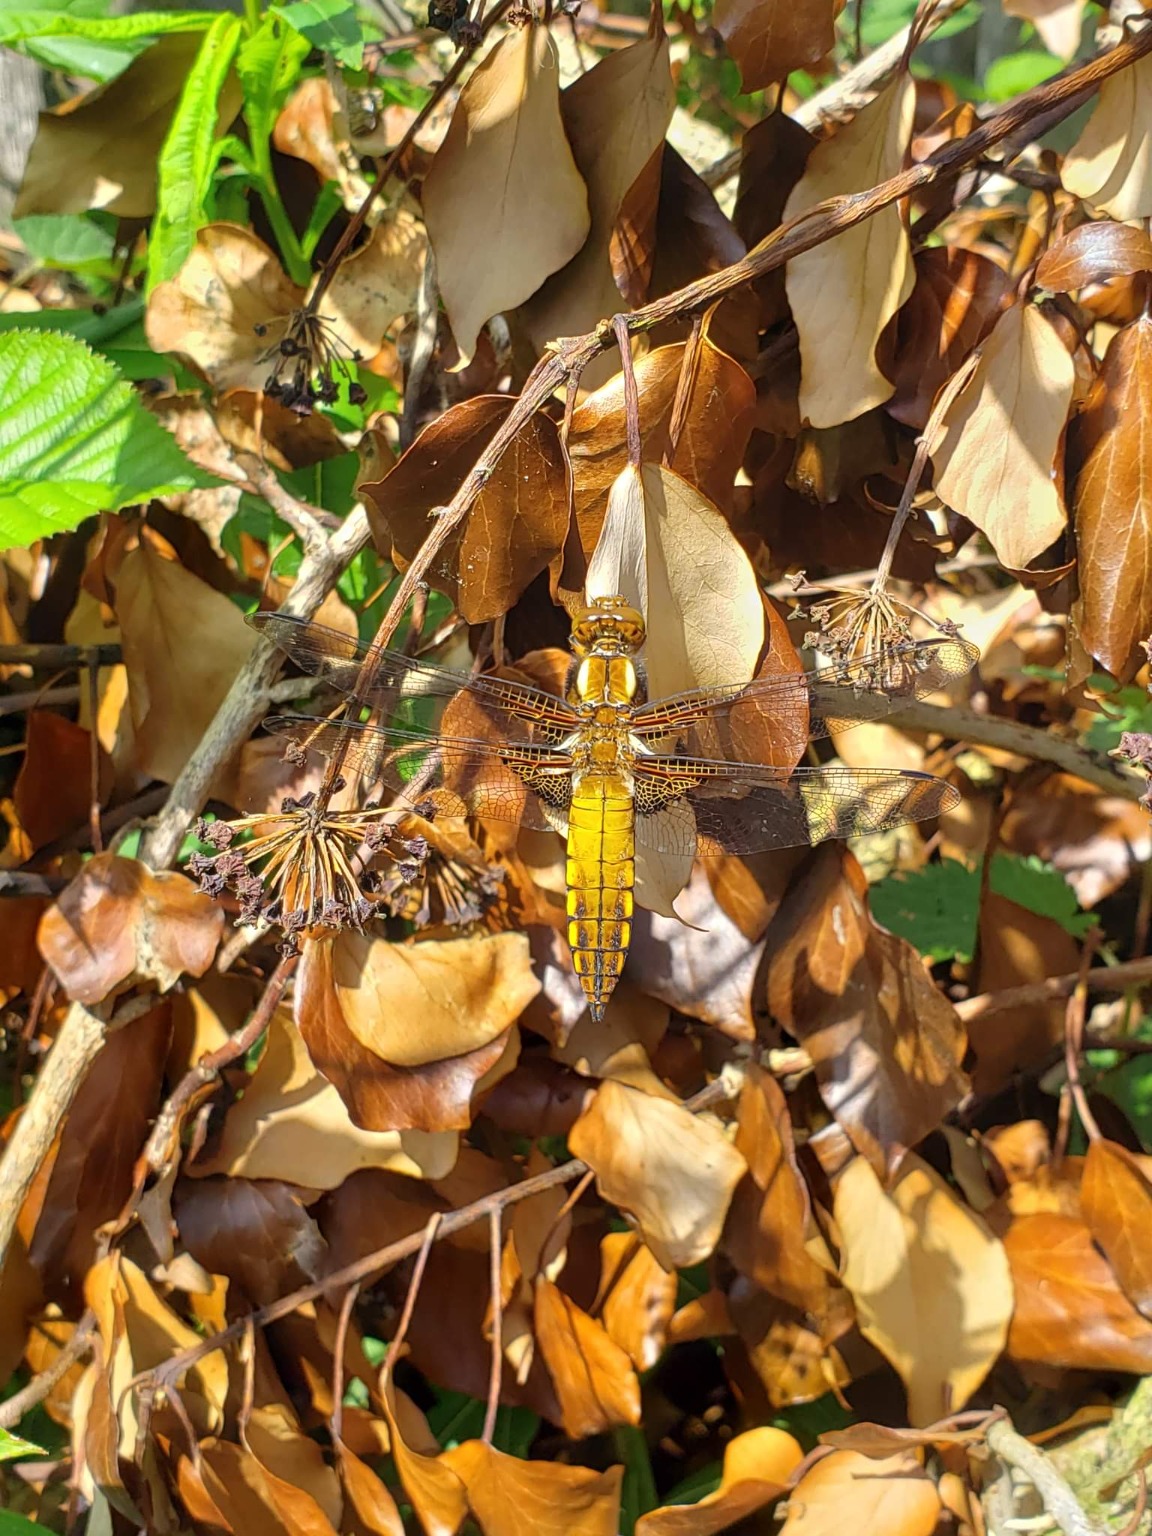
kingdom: Animalia
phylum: Arthropoda
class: Insecta
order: Odonata
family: Libellulidae
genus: Libellula
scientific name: Libellula depressa
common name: Blå libel
